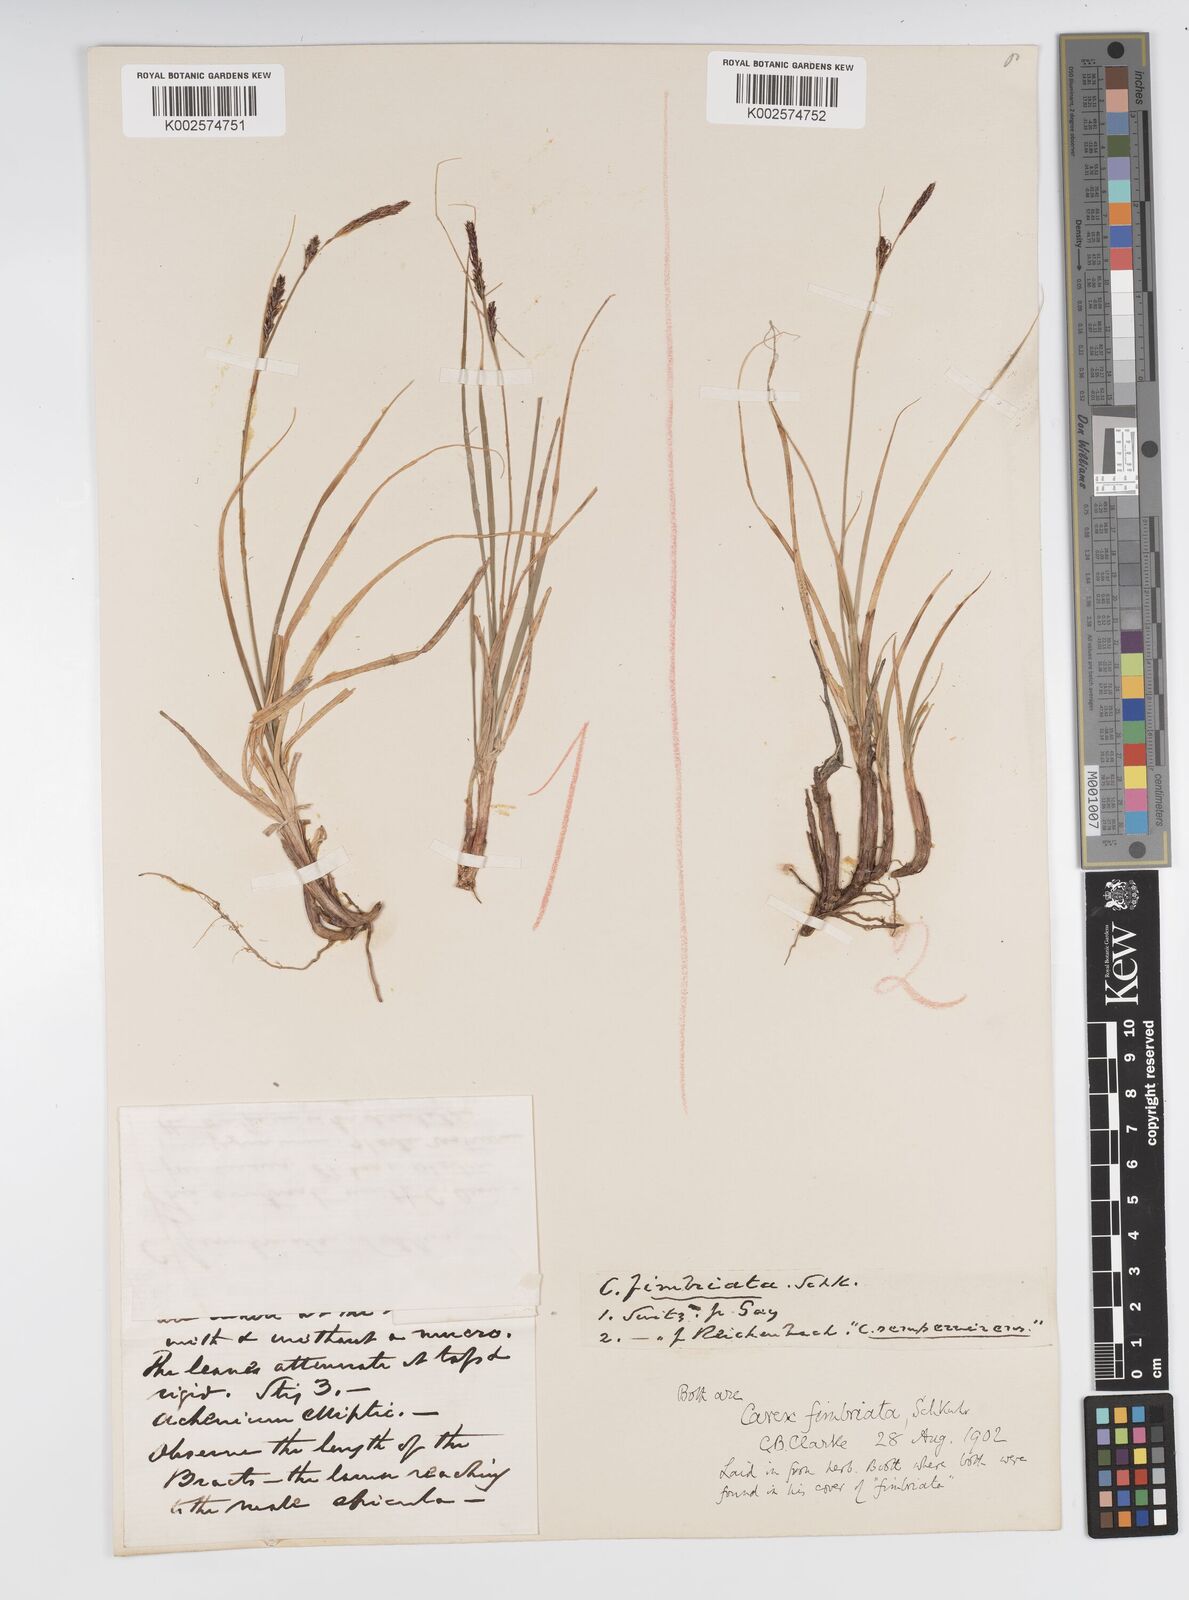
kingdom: Plantae
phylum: Tracheophyta
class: Liliopsida
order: Poales
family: Cyperaceae
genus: Carex
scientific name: Carex fimbriata
